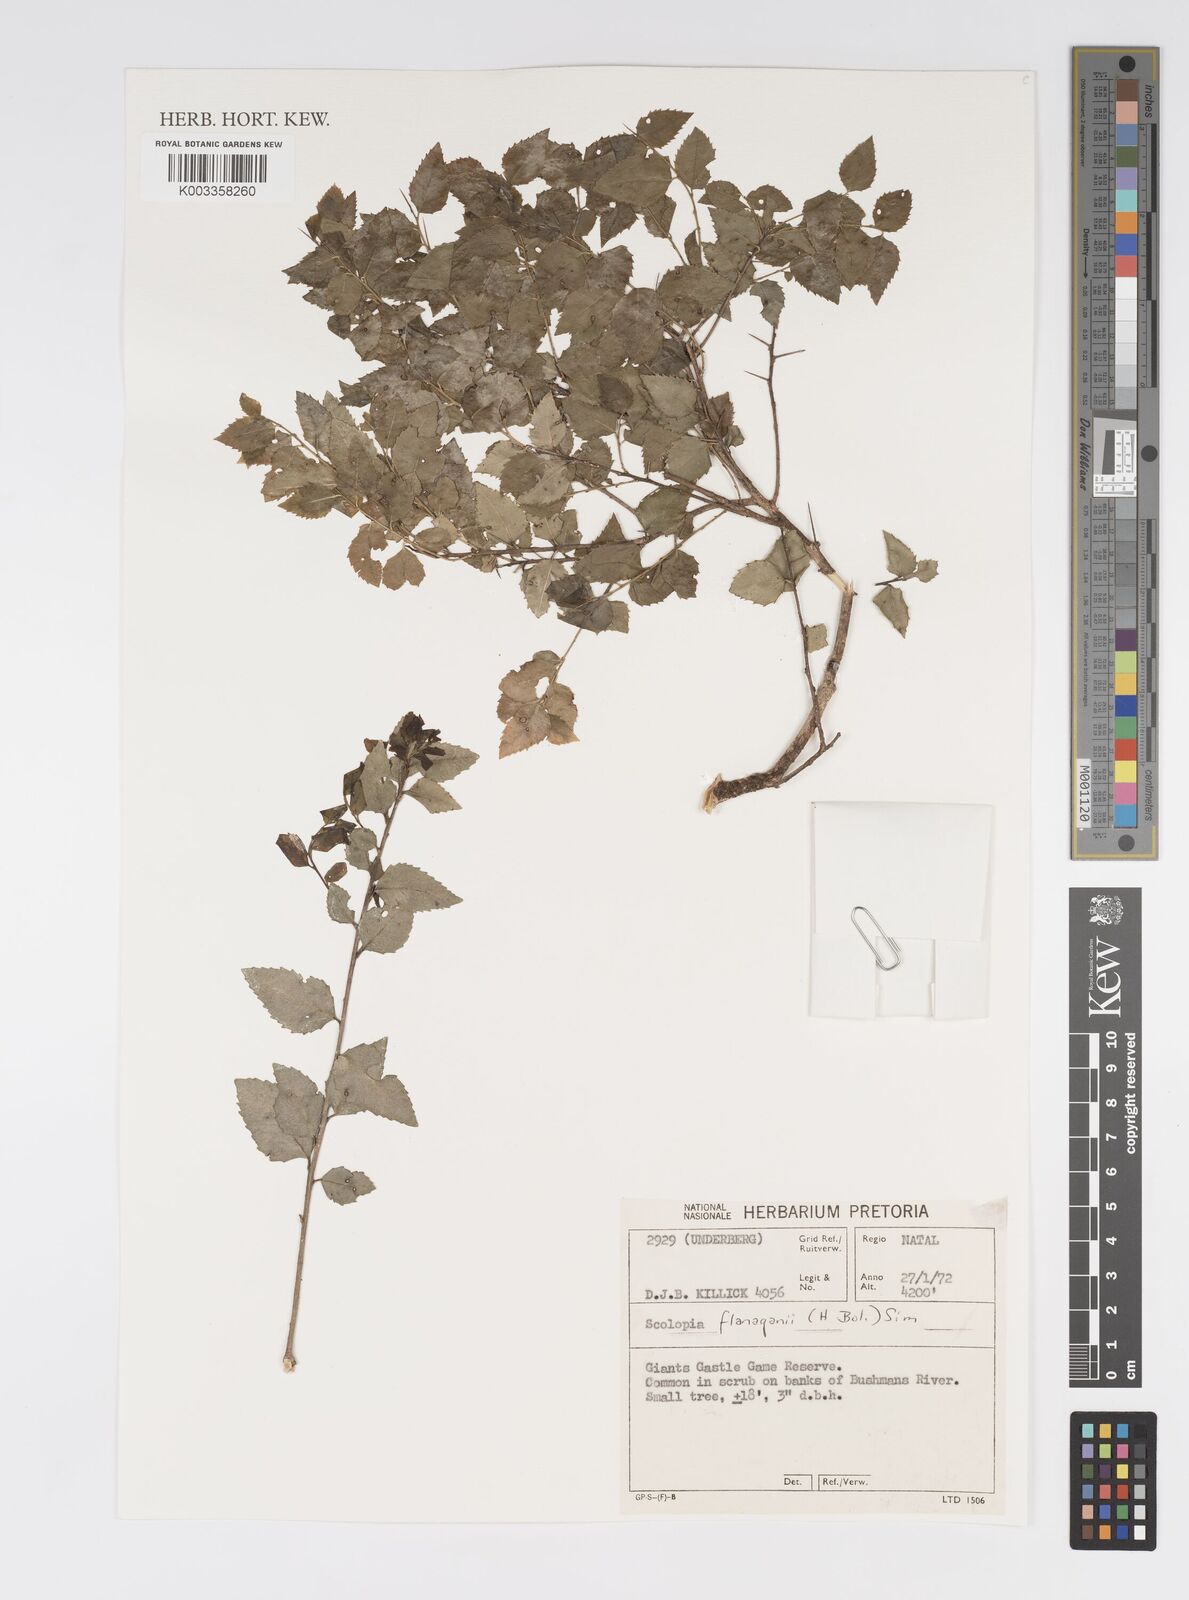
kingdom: Plantae
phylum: Tracheophyta
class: Magnoliopsida
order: Malpighiales
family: Salicaceae
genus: Scolopia
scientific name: Scolopia flanaganii
